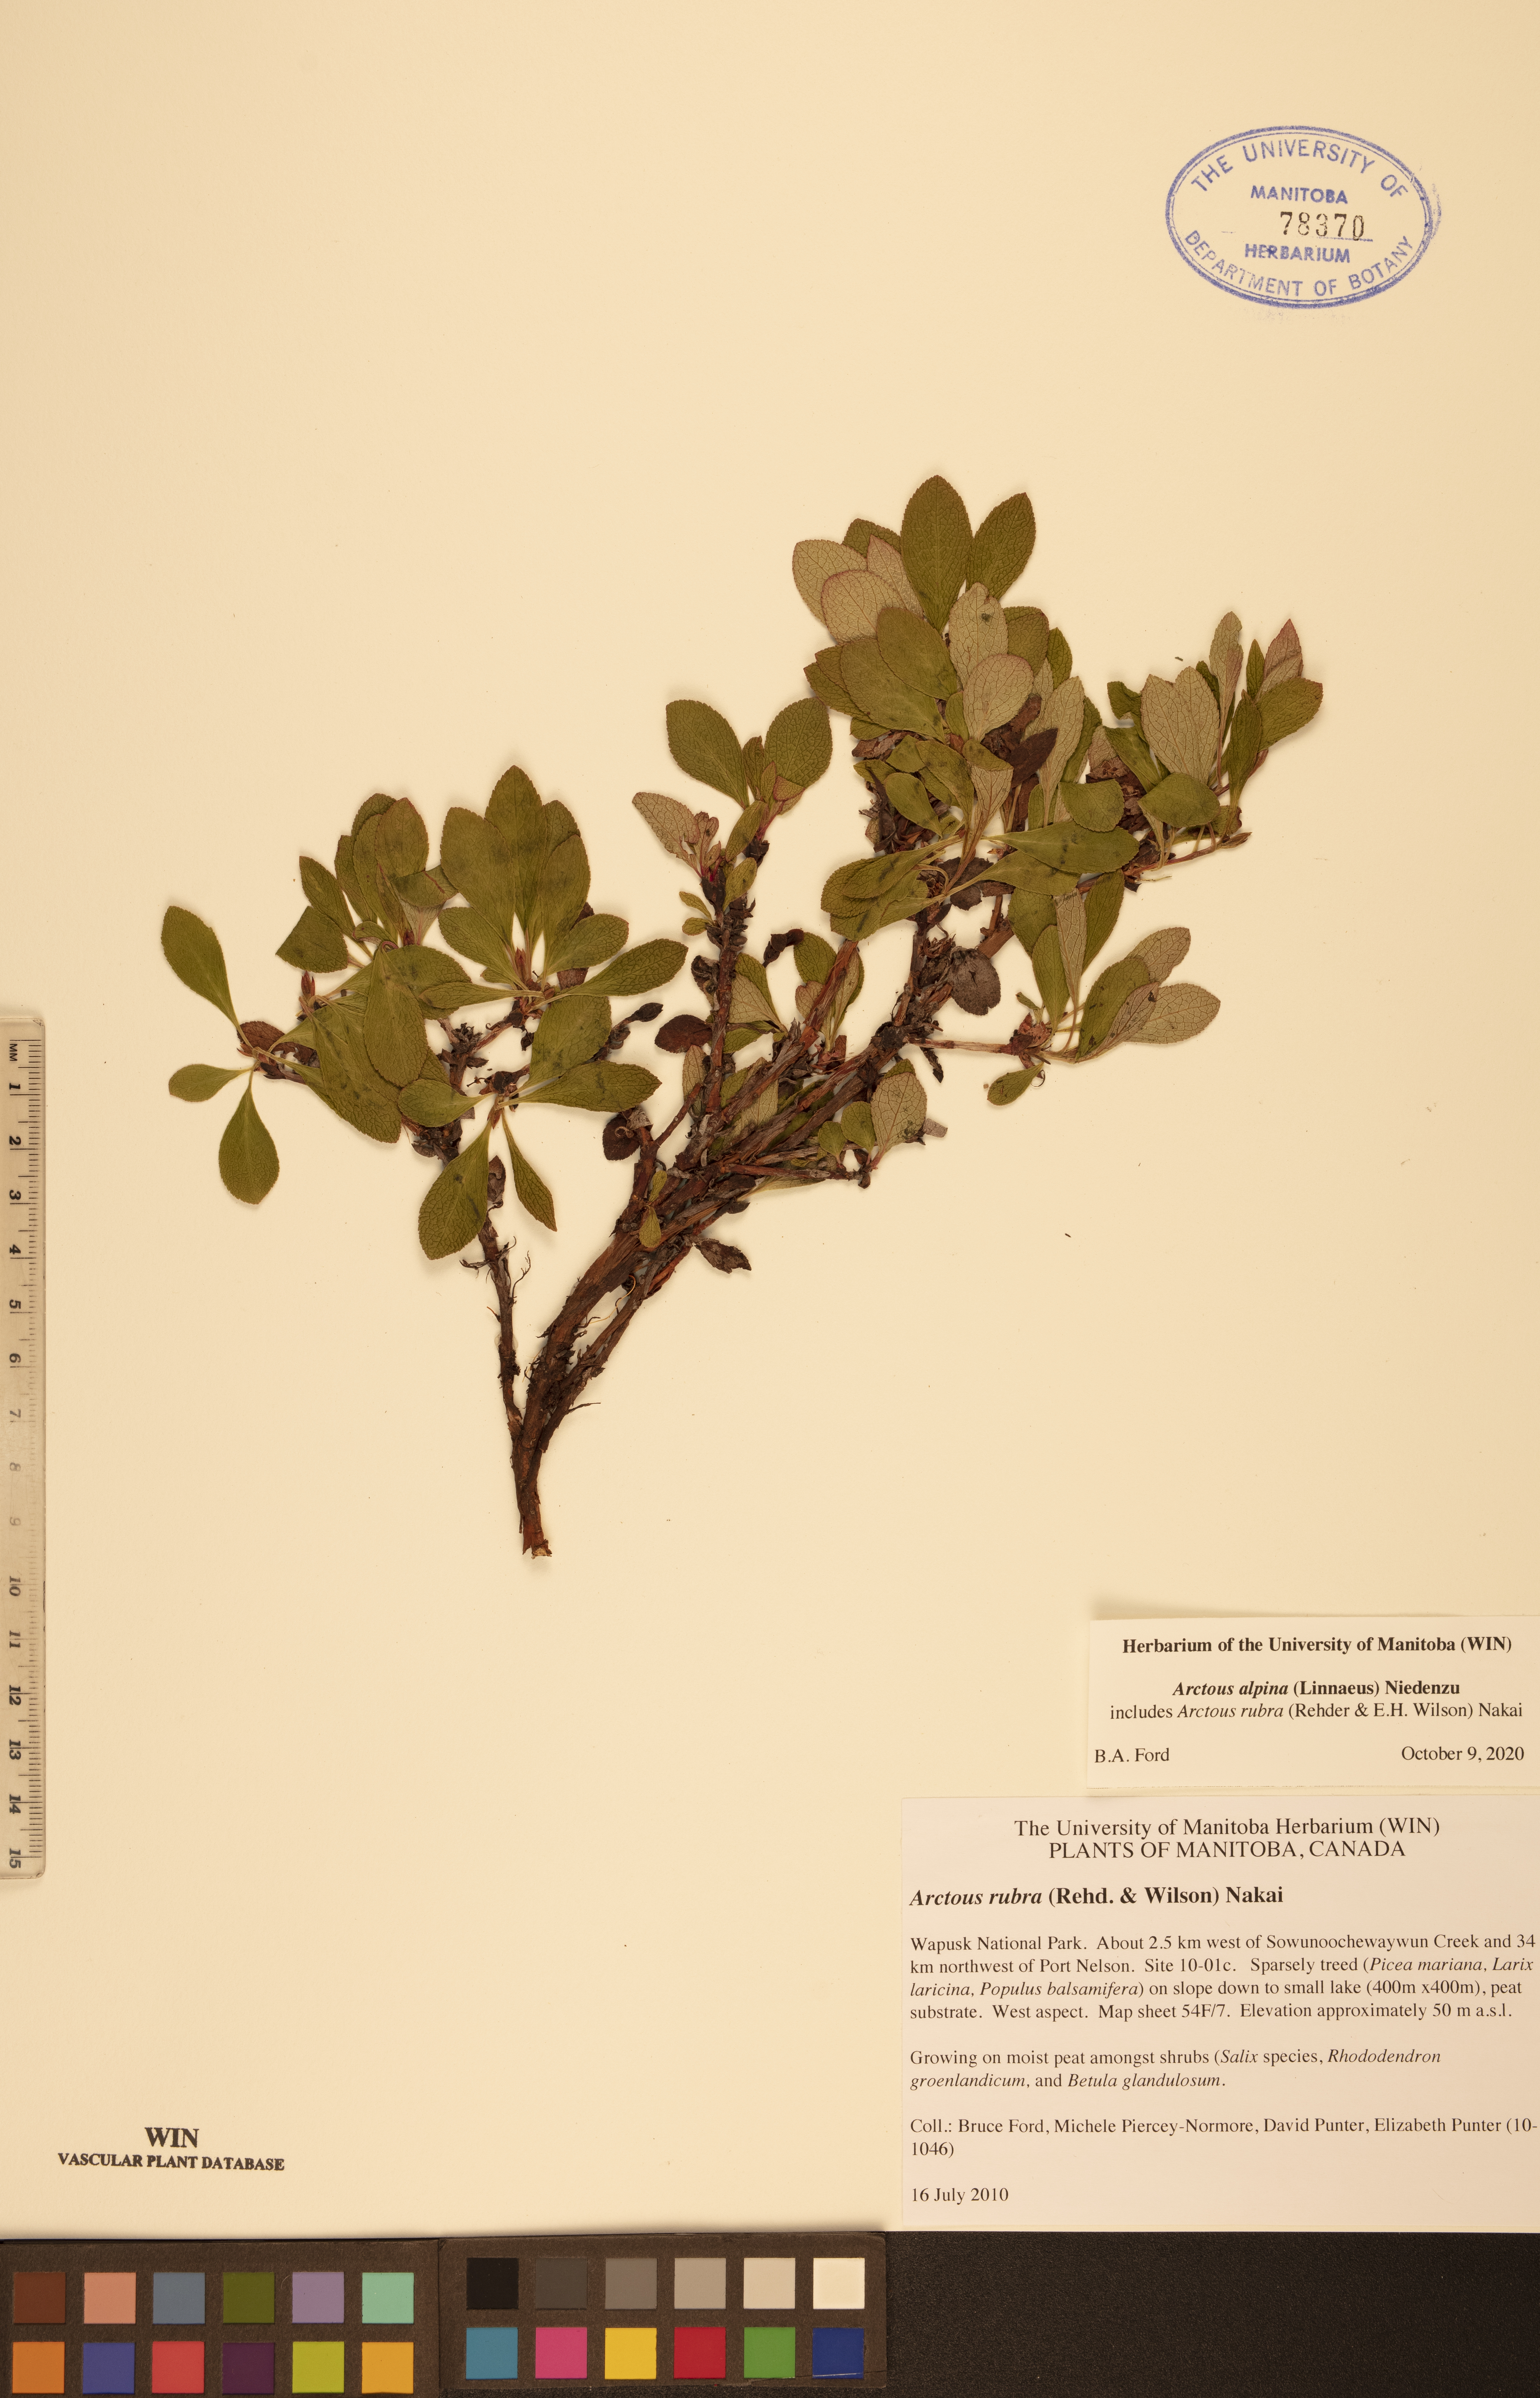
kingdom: Plantae
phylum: Tracheophyta
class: Magnoliopsida
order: Ericales
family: Ericaceae
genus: Arctostaphylos
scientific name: Arctostaphylos alpinus
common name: Alpine bearberry
